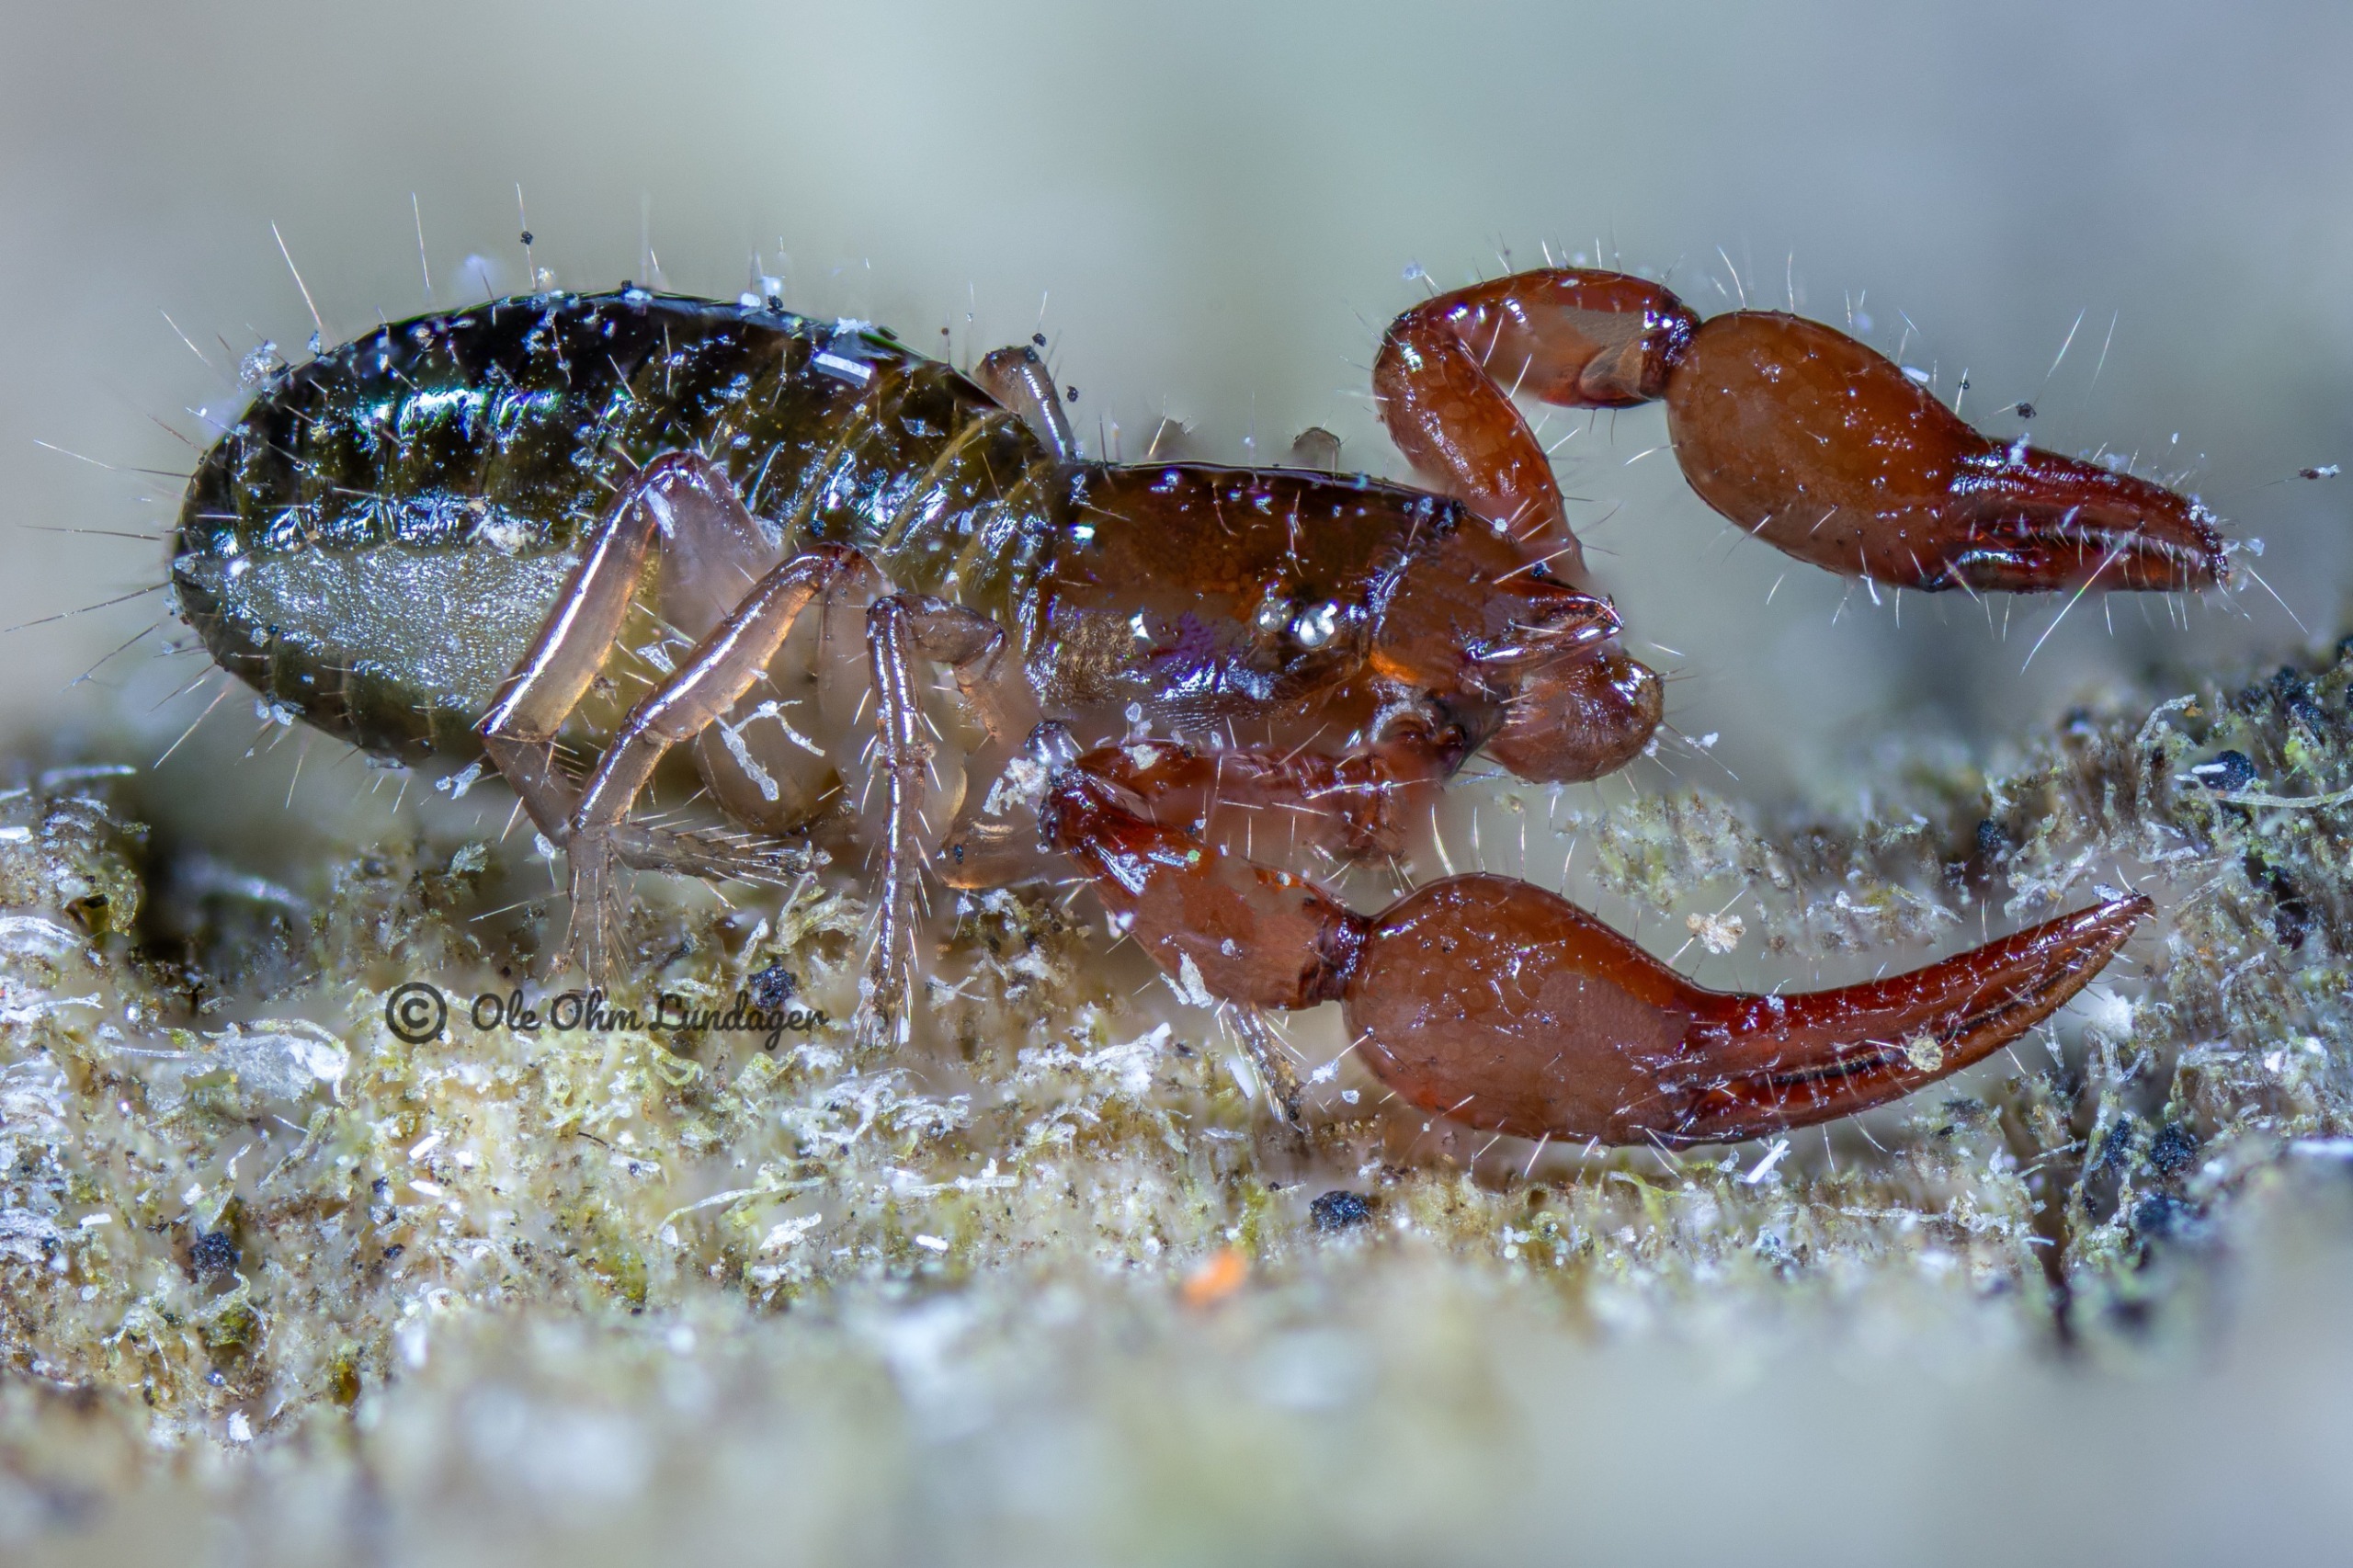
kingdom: Animalia
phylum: Arthropoda
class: Arachnida
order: Pseudoscorpiones
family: Neobisiidae
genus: Neobisium
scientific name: Neobisium carcinoides
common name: Almindelig mosskorpion
